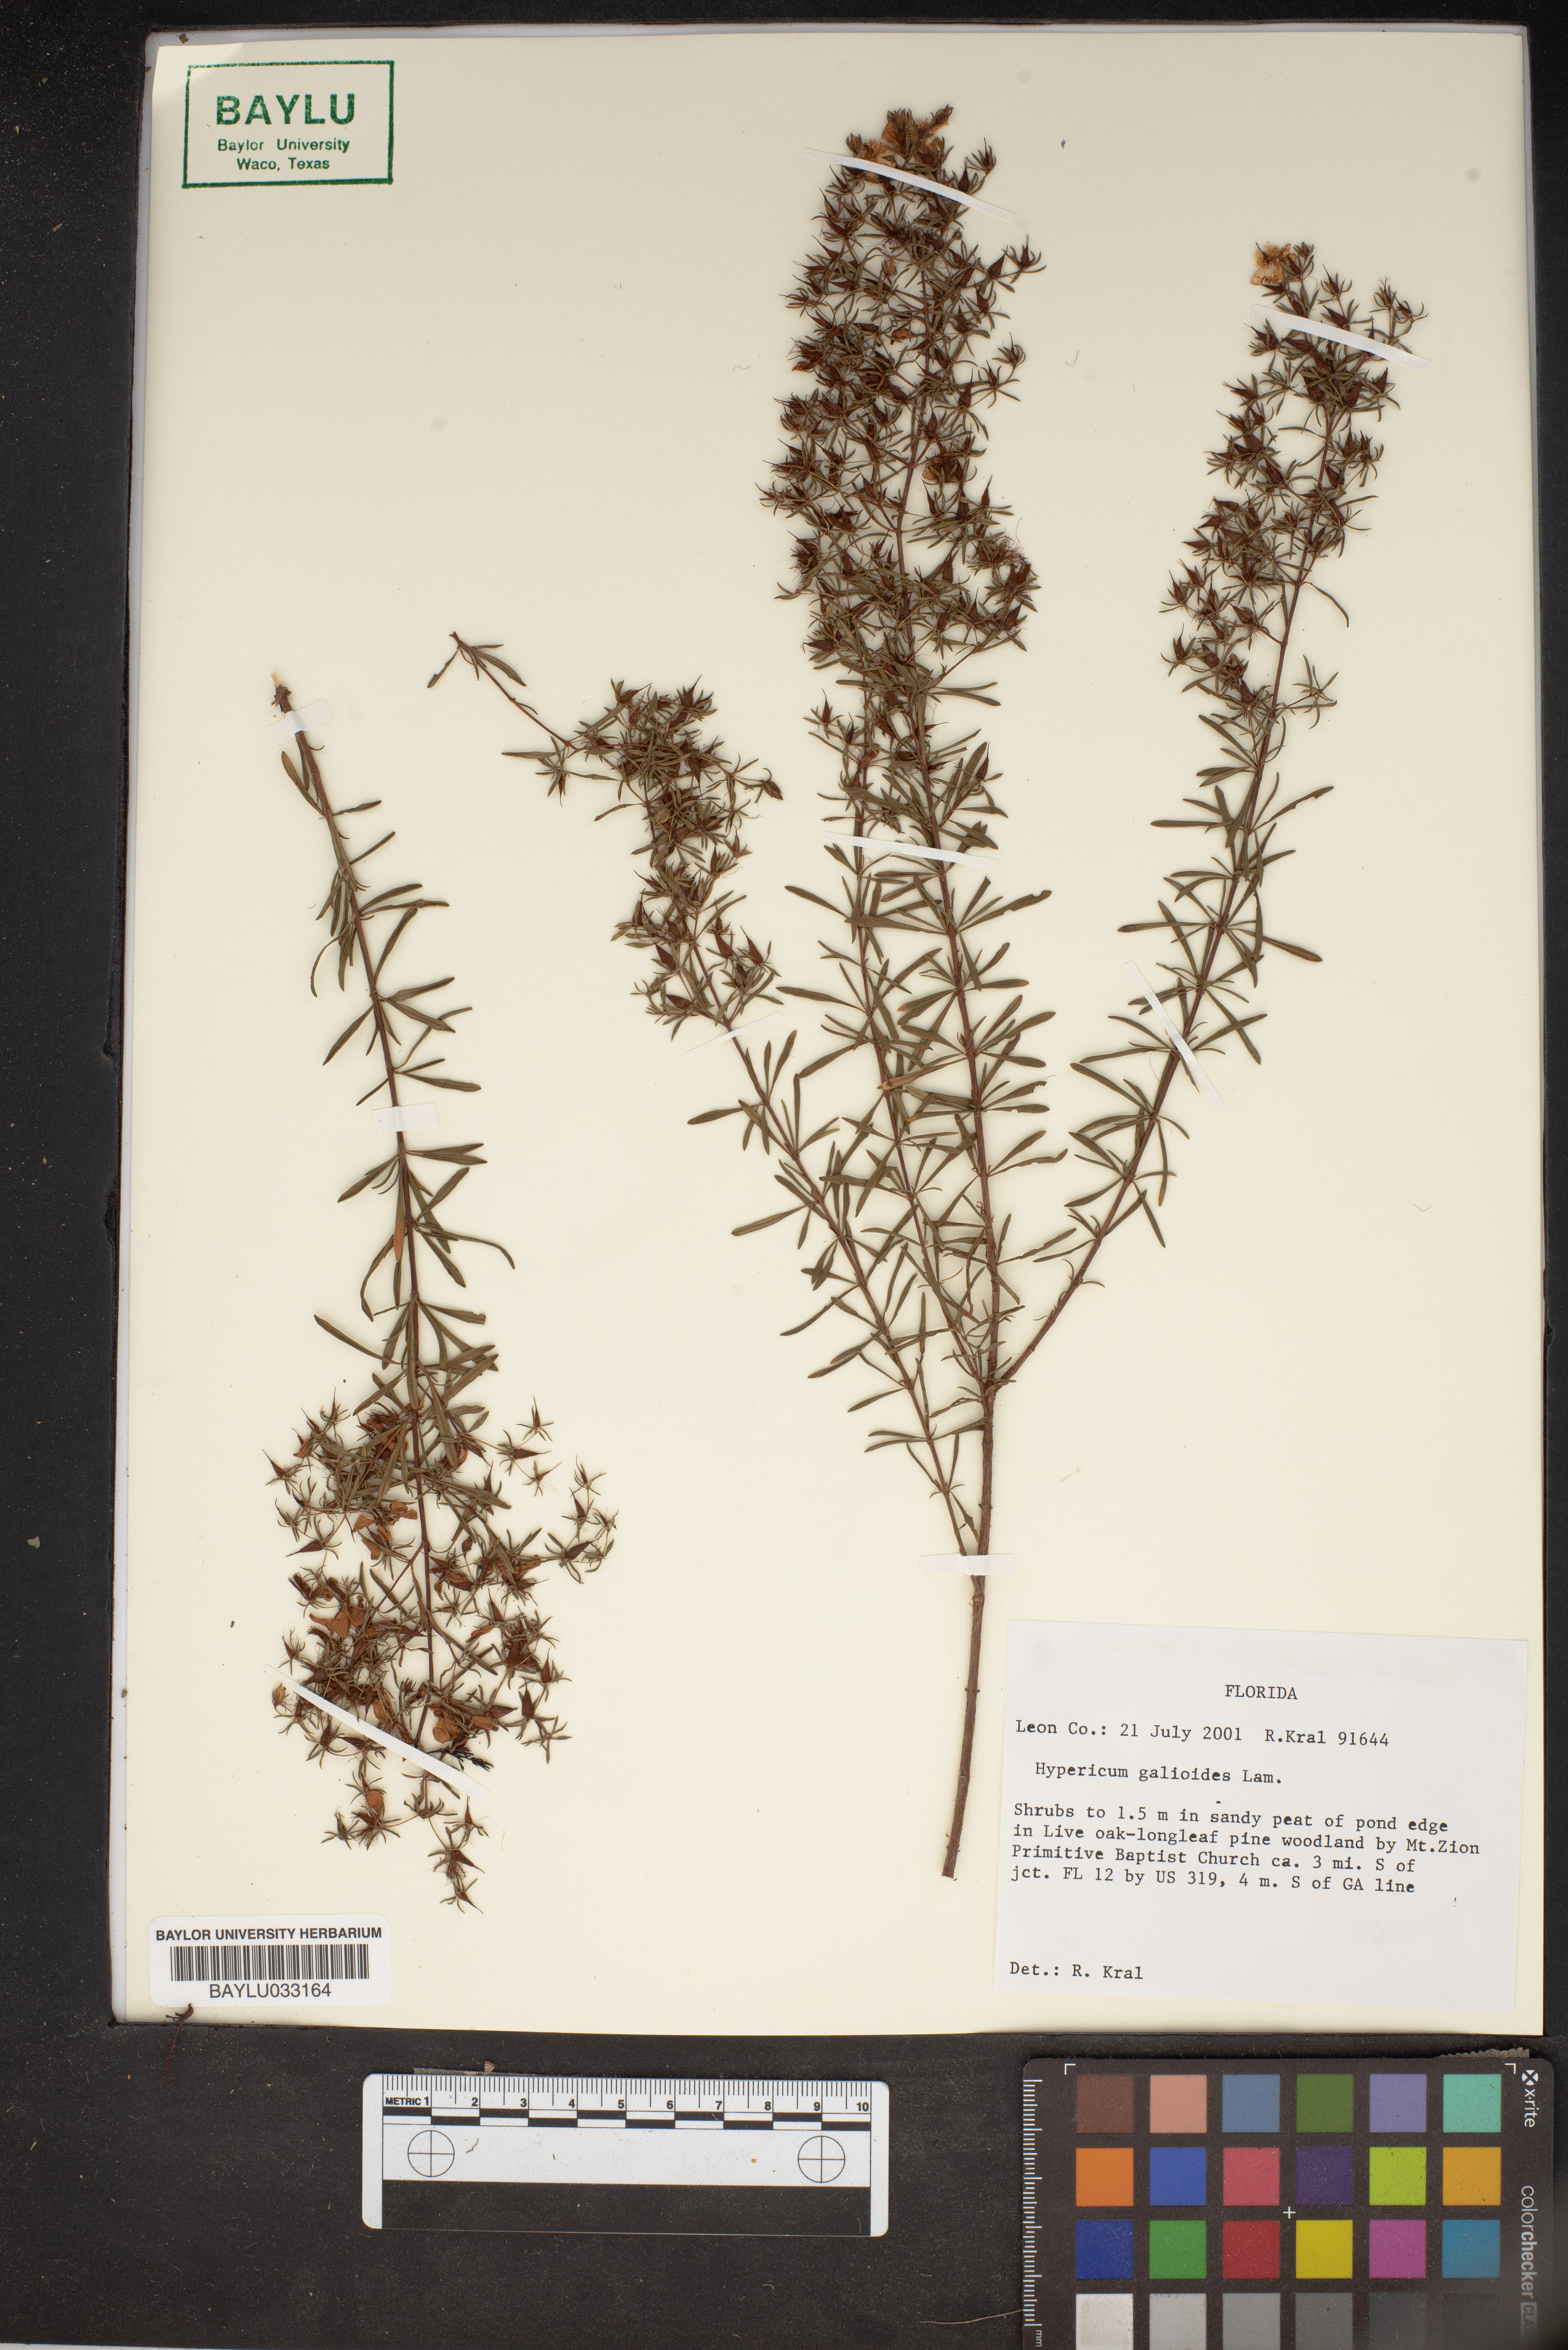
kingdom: Plantae
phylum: Tracheophyta
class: Magnoliopsida
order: Malpighiales
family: Hypericaceae
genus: Hypericum
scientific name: Hypericum galioides
